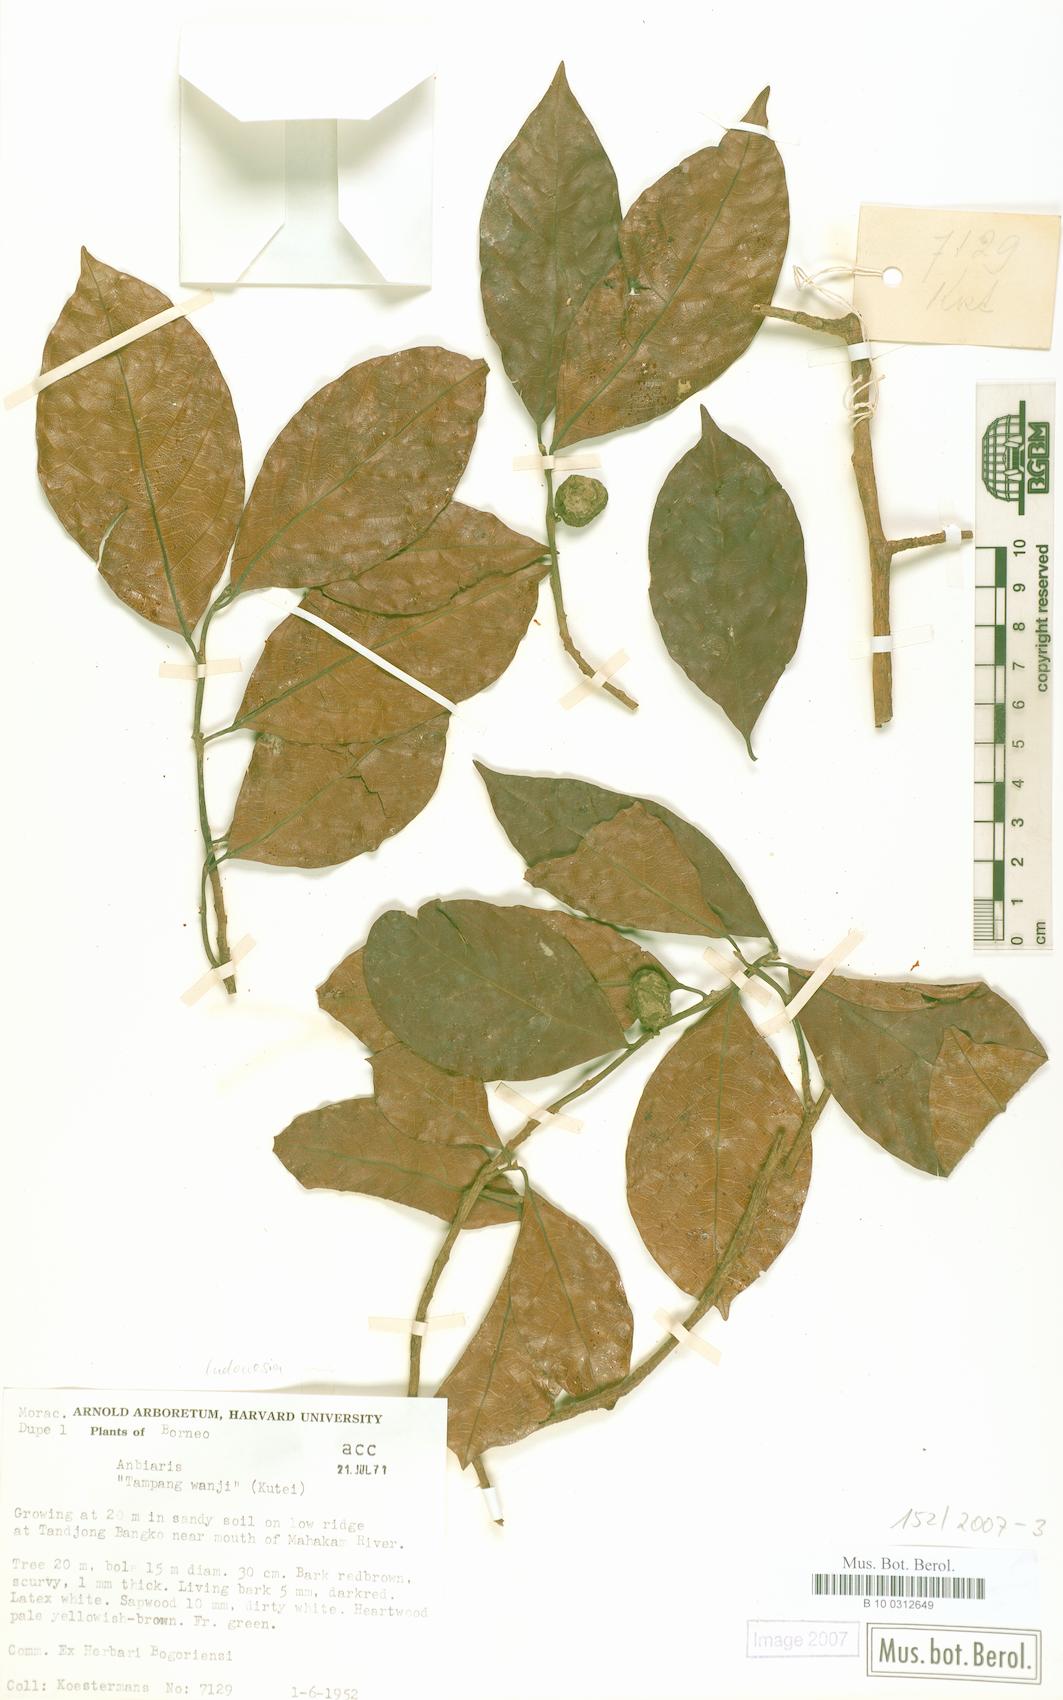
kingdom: Plantae
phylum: Tracheophyta
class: Magnoliopsida
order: Rosales
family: Moraceae
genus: Antiaris
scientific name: Antiaris
